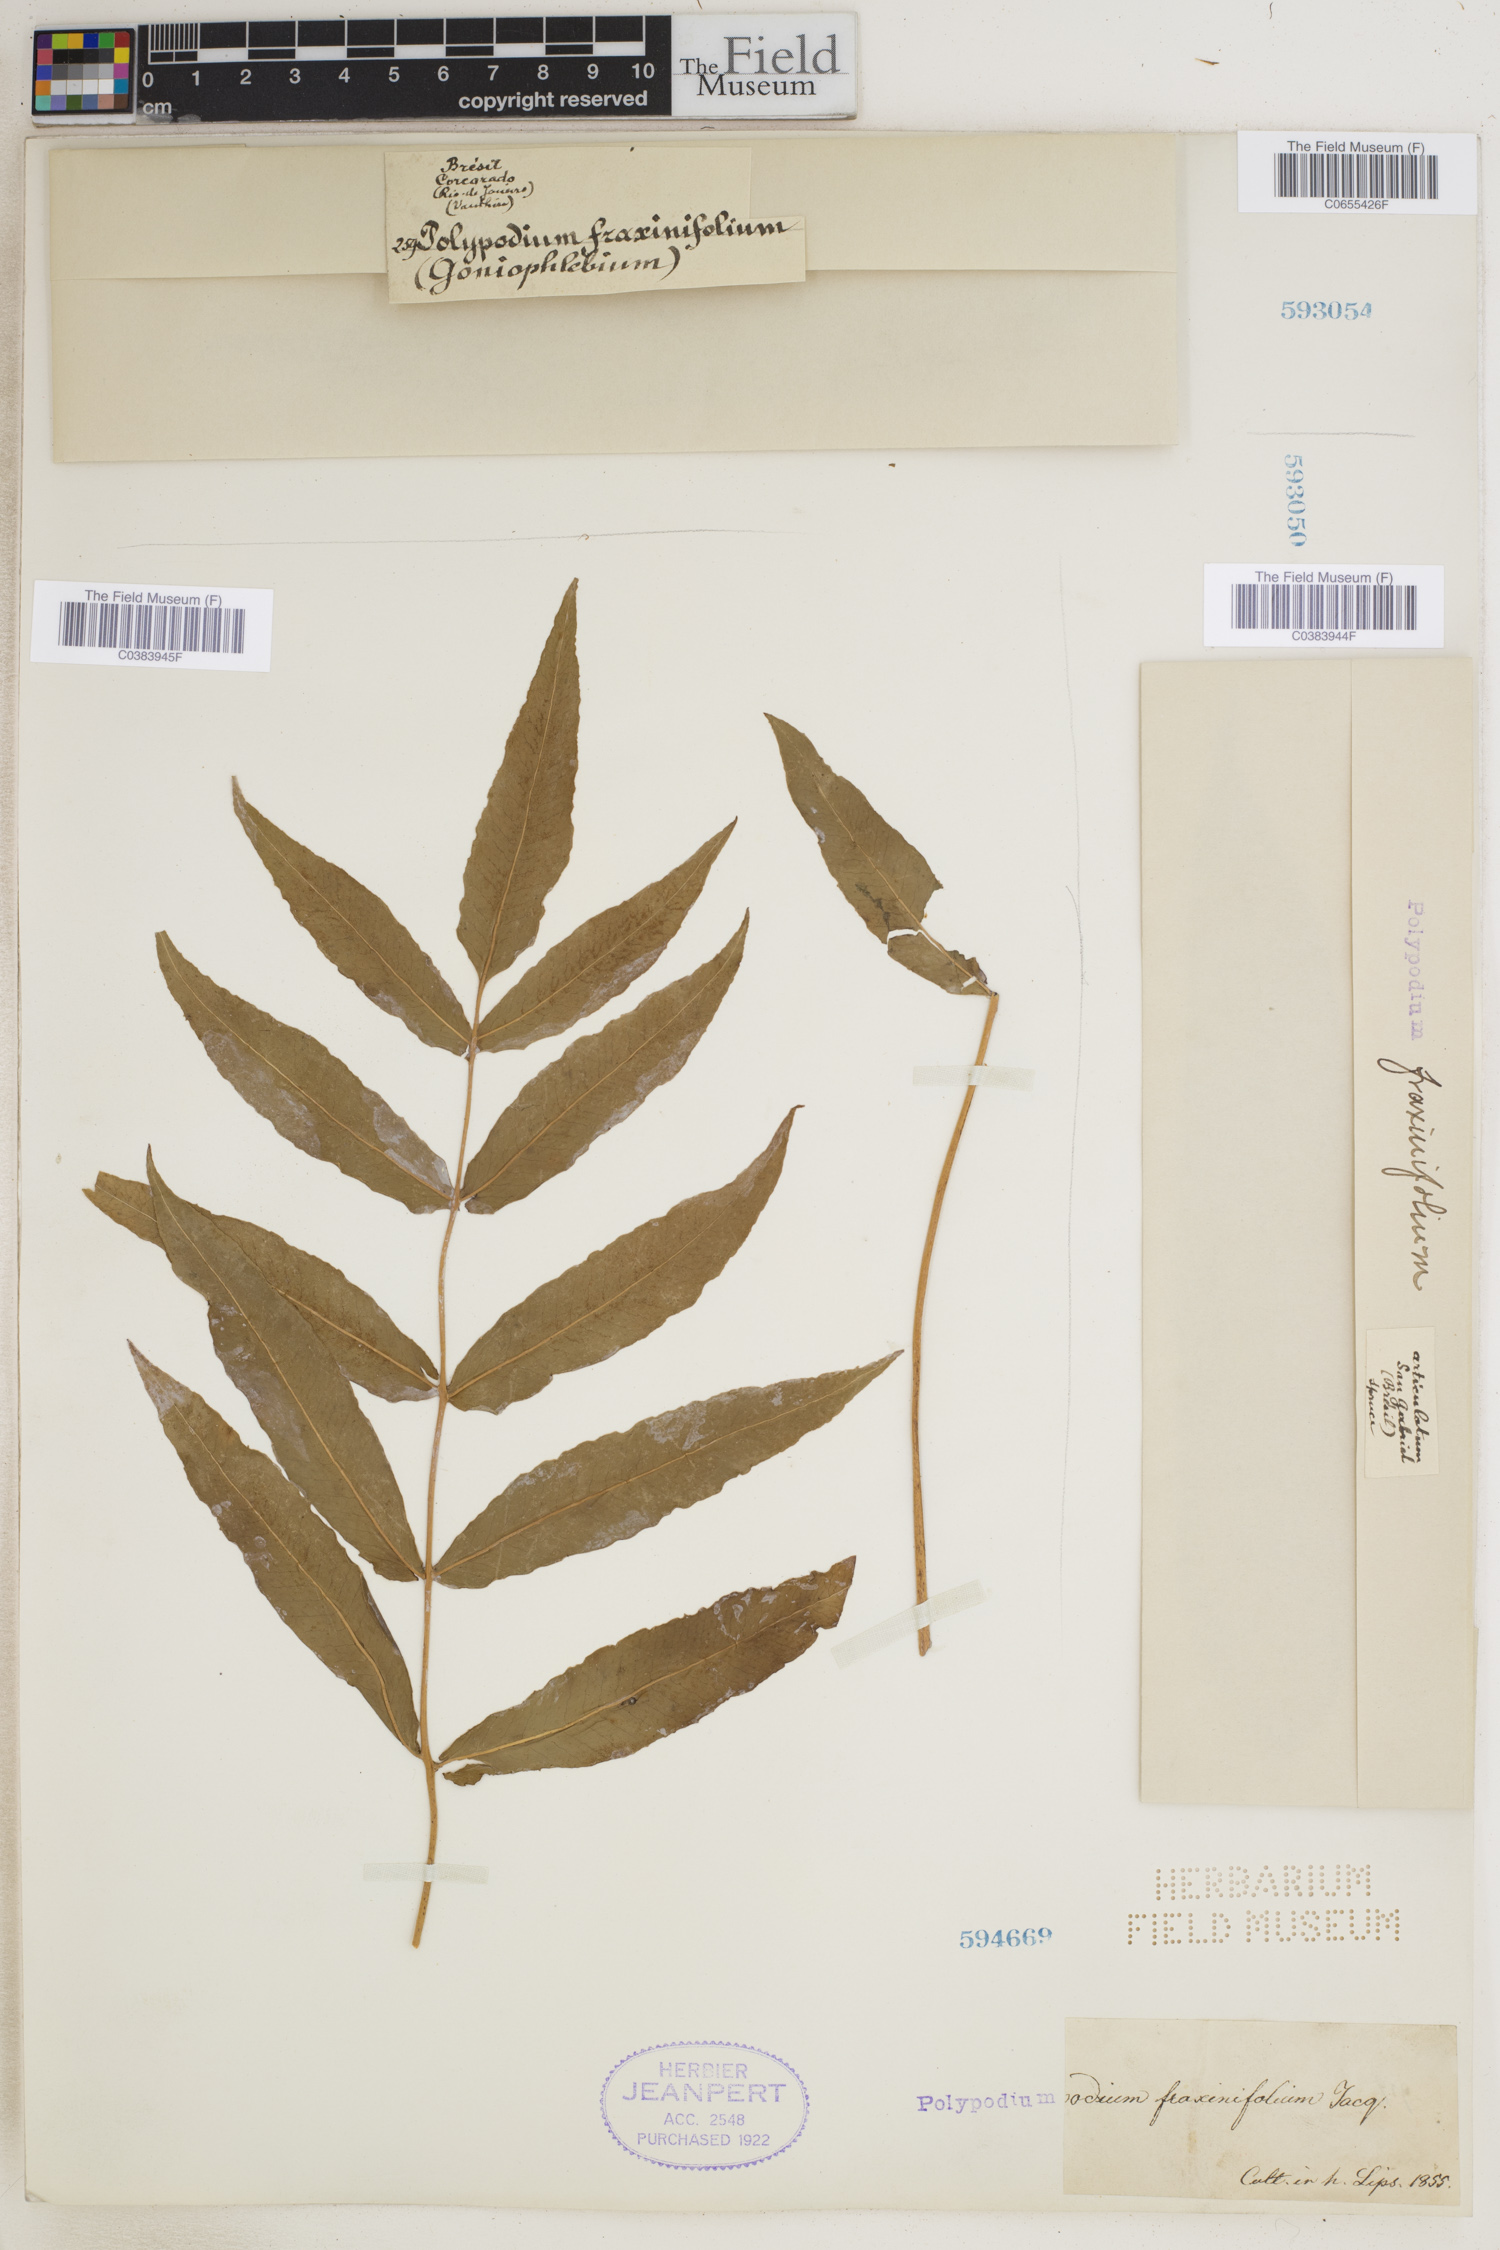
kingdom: Plantae
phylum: Tracheophyta
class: Polypodiopsida
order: Polypodiales
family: Polypodiaceae
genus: Serpocaulon
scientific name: Serpocaulon fraxinifolium
